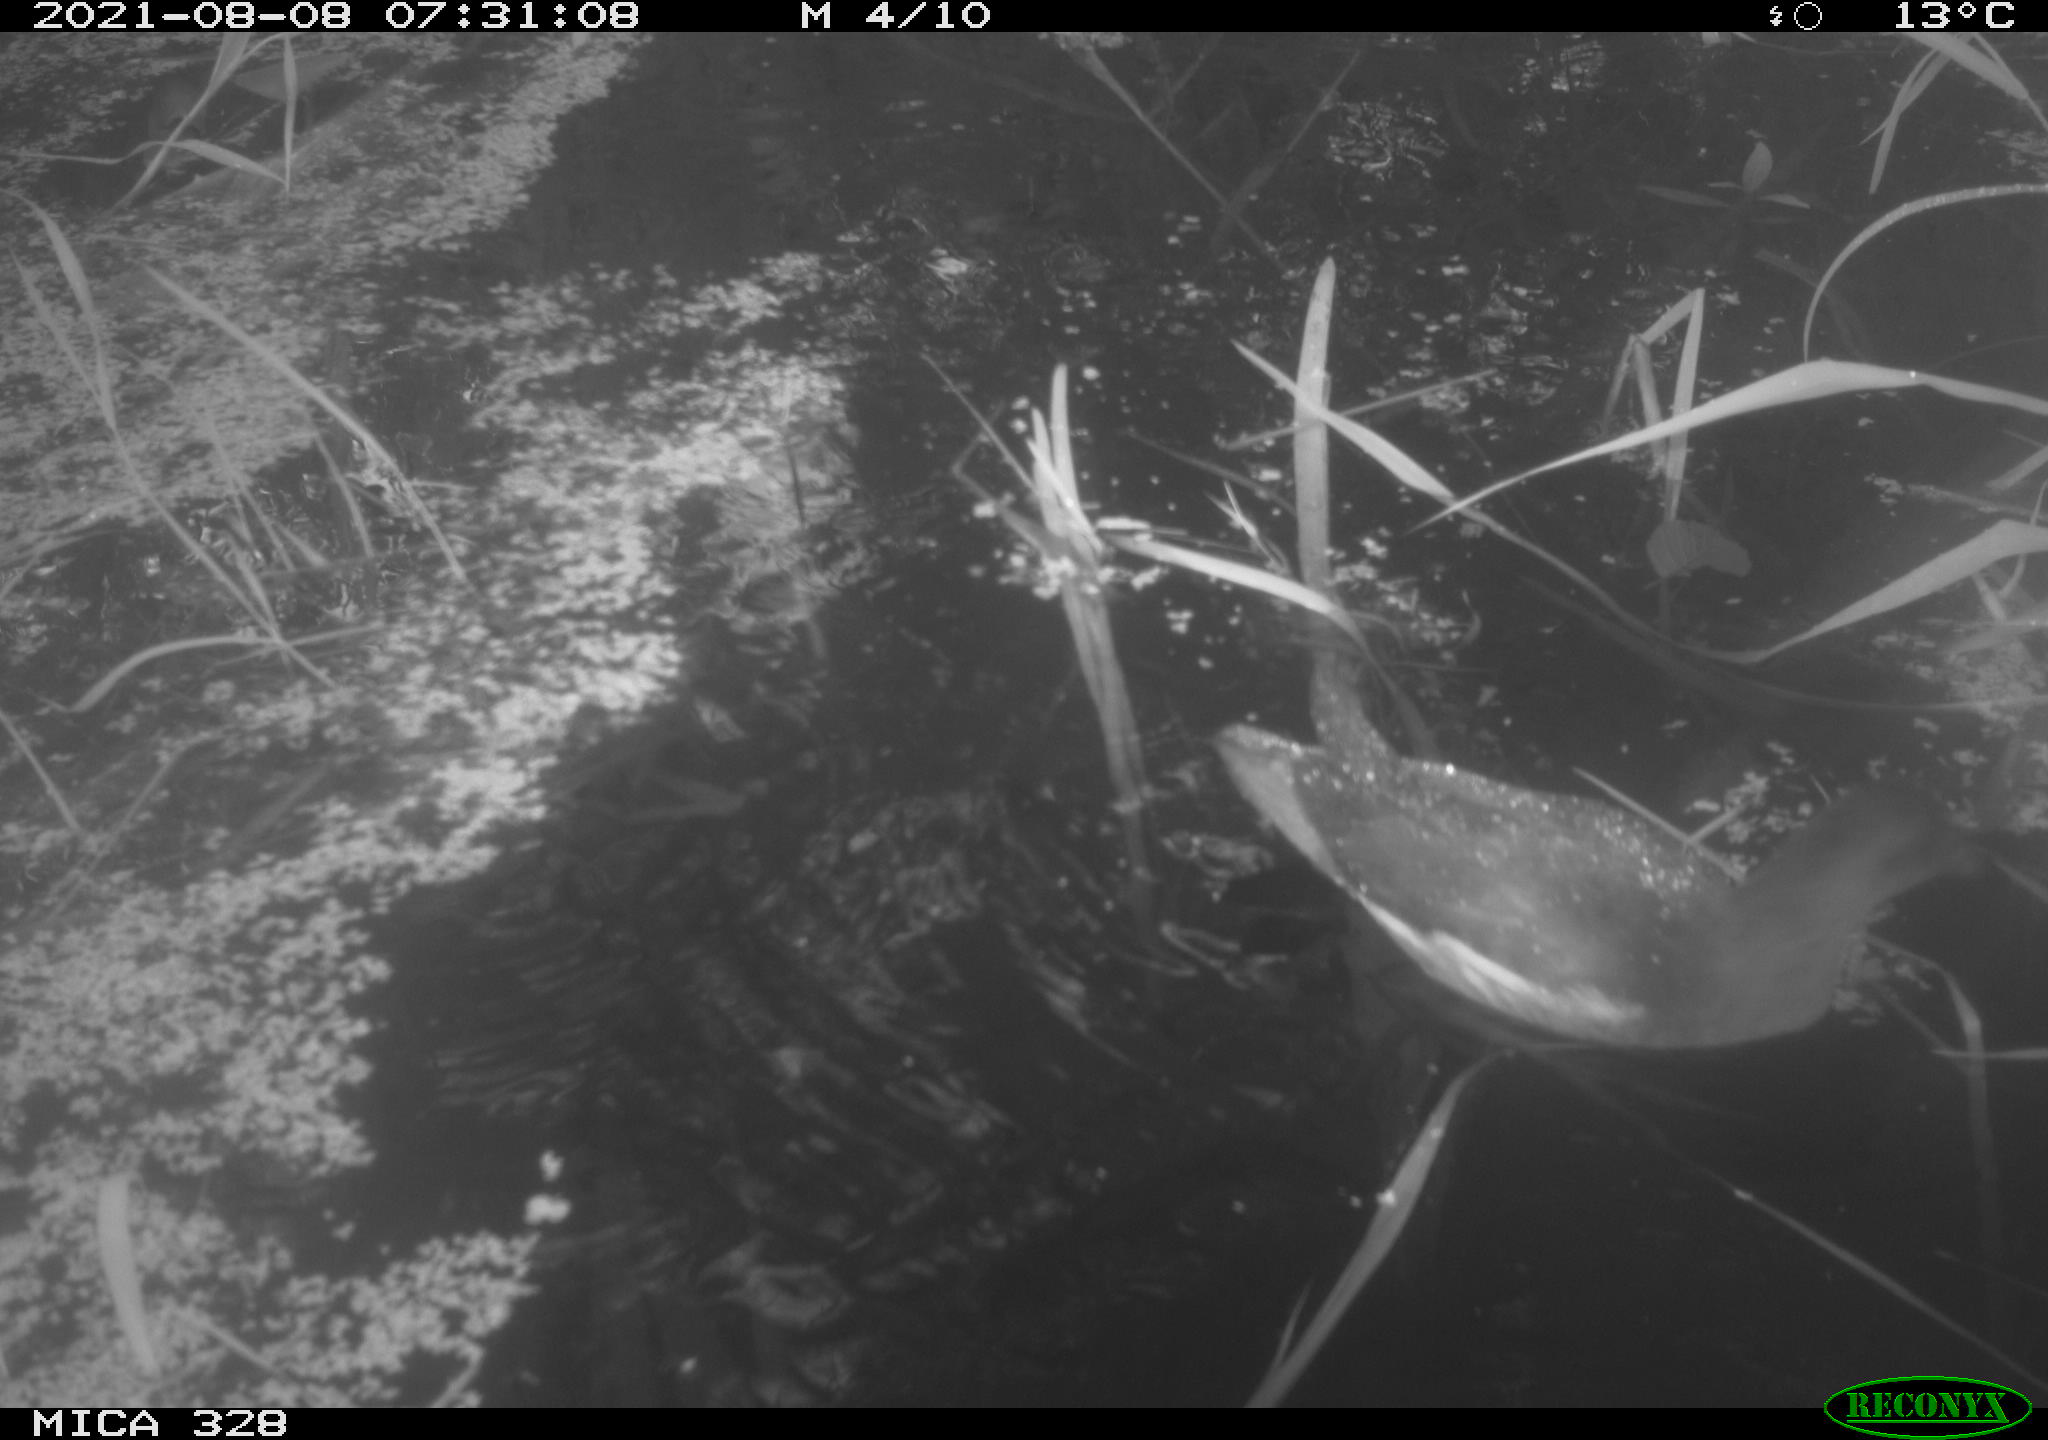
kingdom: Animalia
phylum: Chordata
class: Aves
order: Gruiformes
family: Rallidae
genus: Gallinula
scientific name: Gallinula chloropus
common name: Common moorhen
